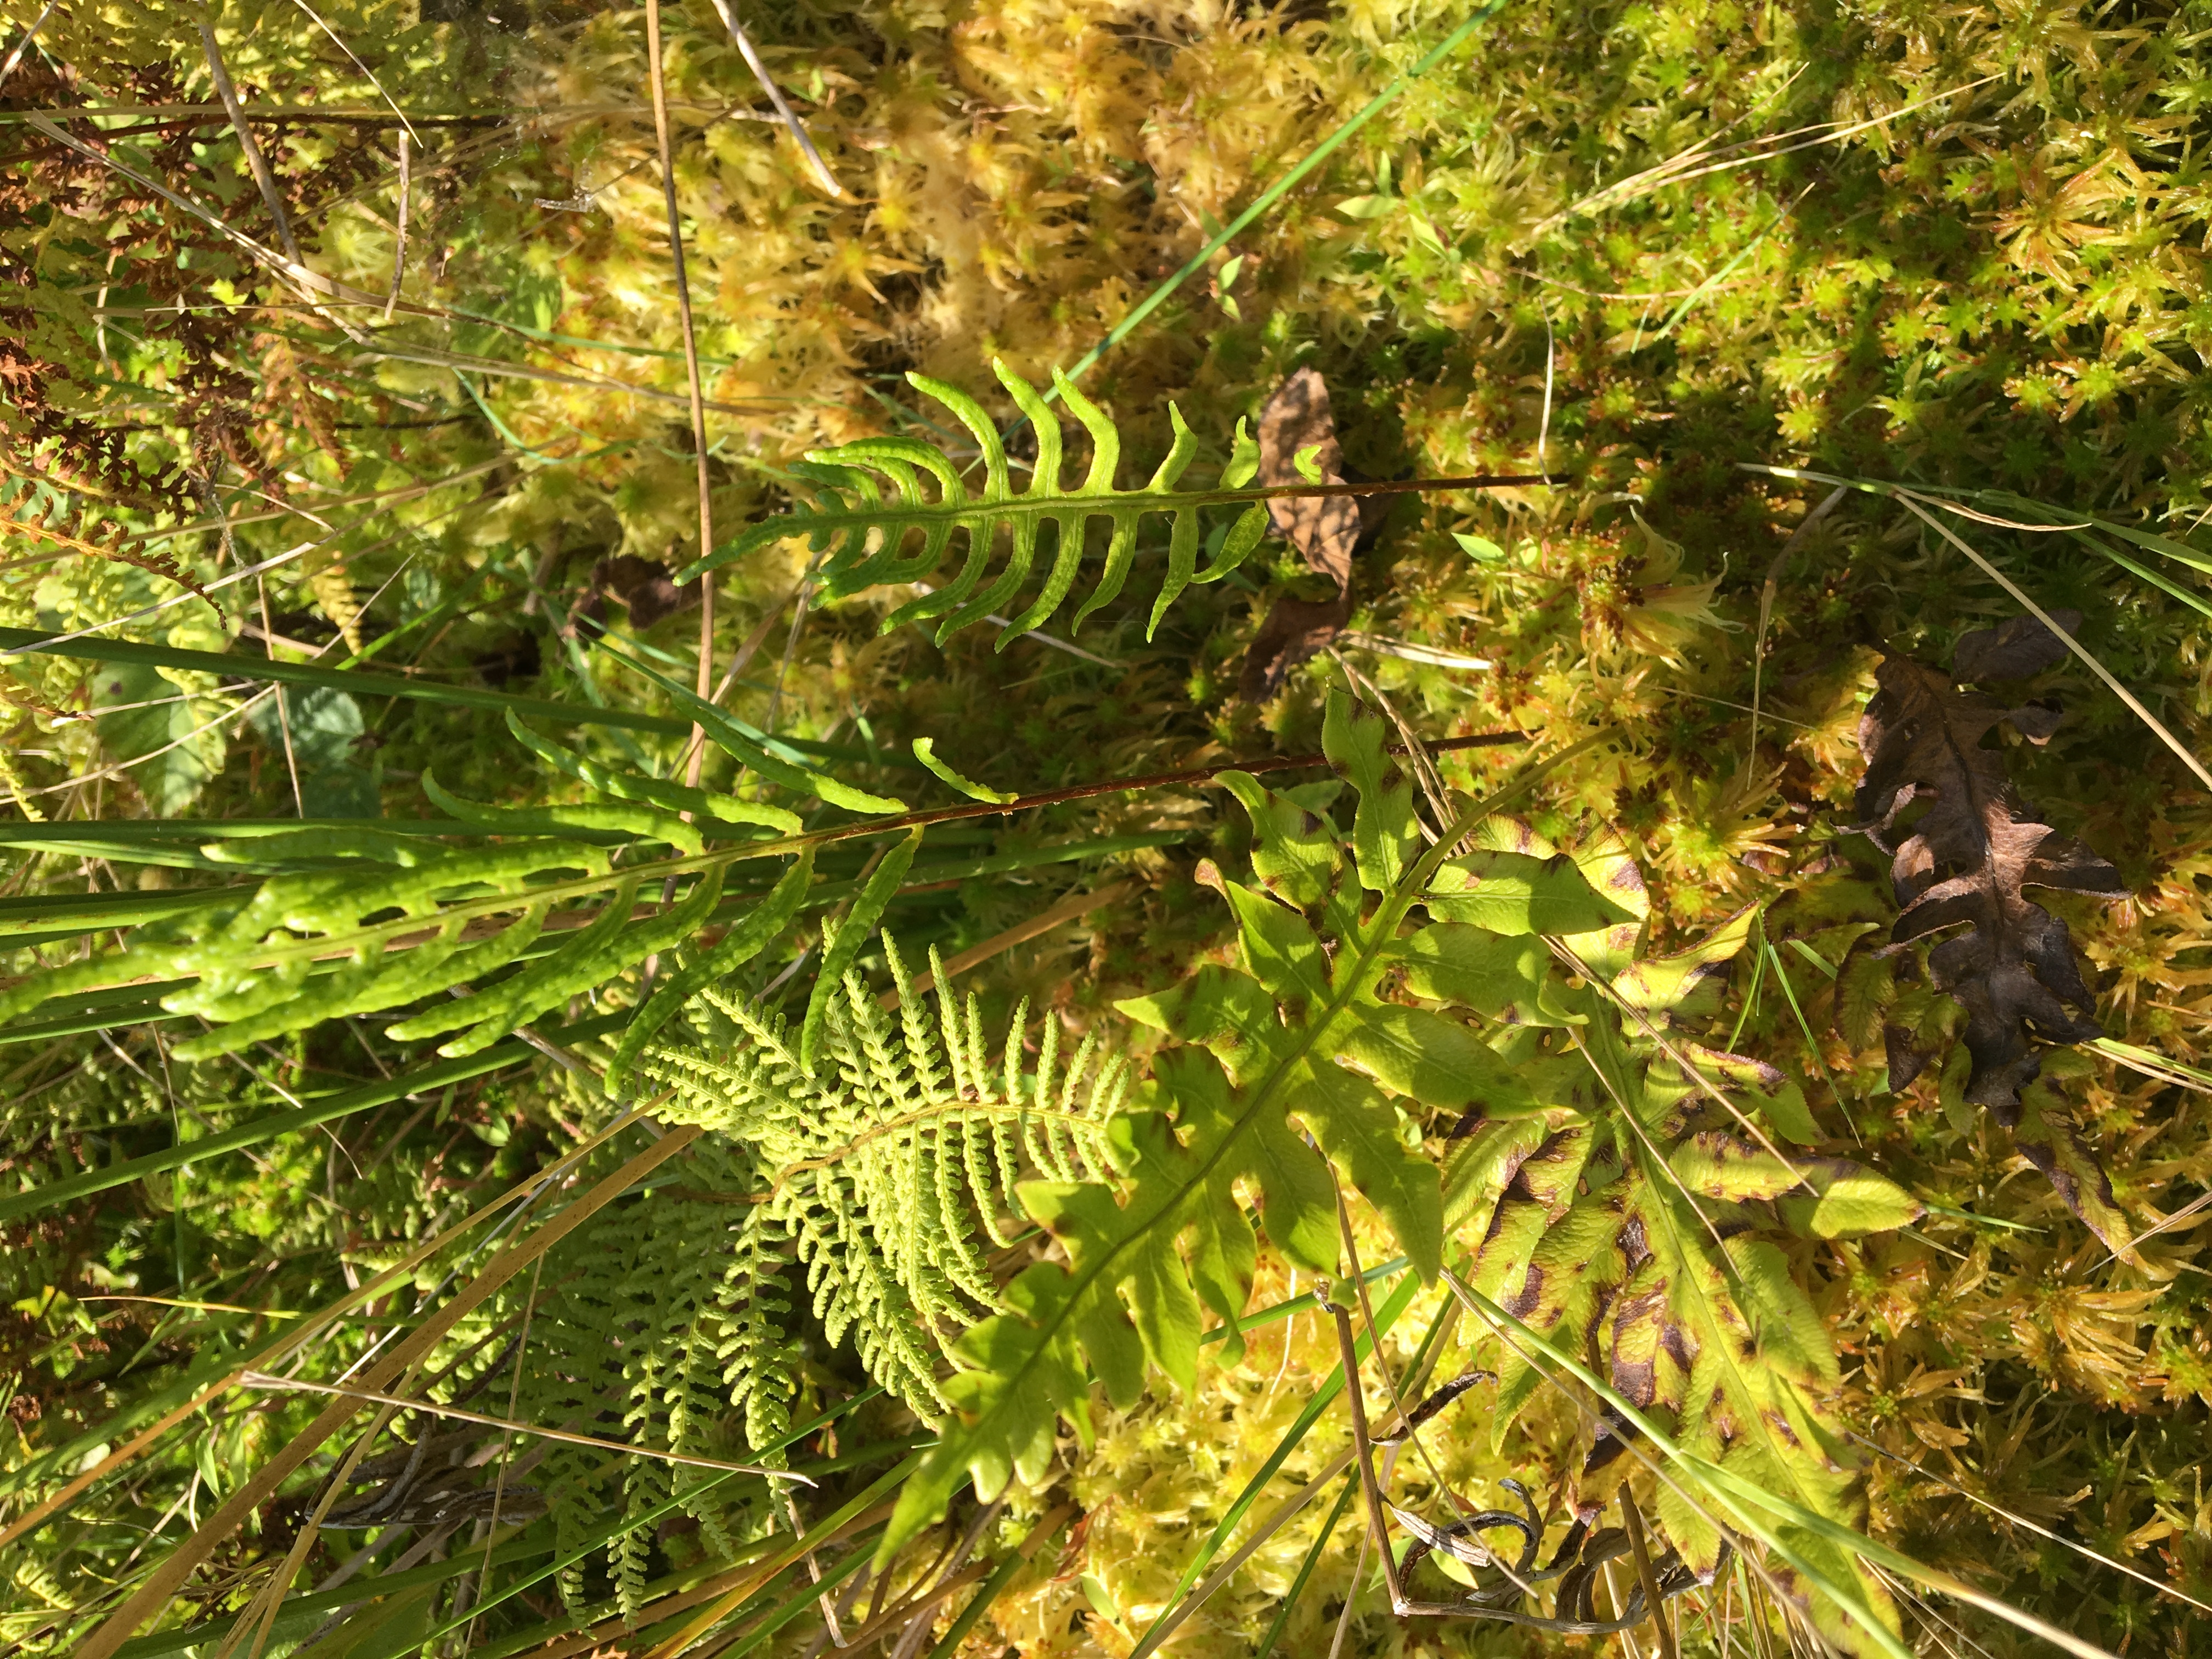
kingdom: Plantae
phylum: Tracheophyta
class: Polypodiopsida
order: Polypodiales
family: Blechnaceae
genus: Lorinseria
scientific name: Lorinseria areolata
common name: netted chainfern
